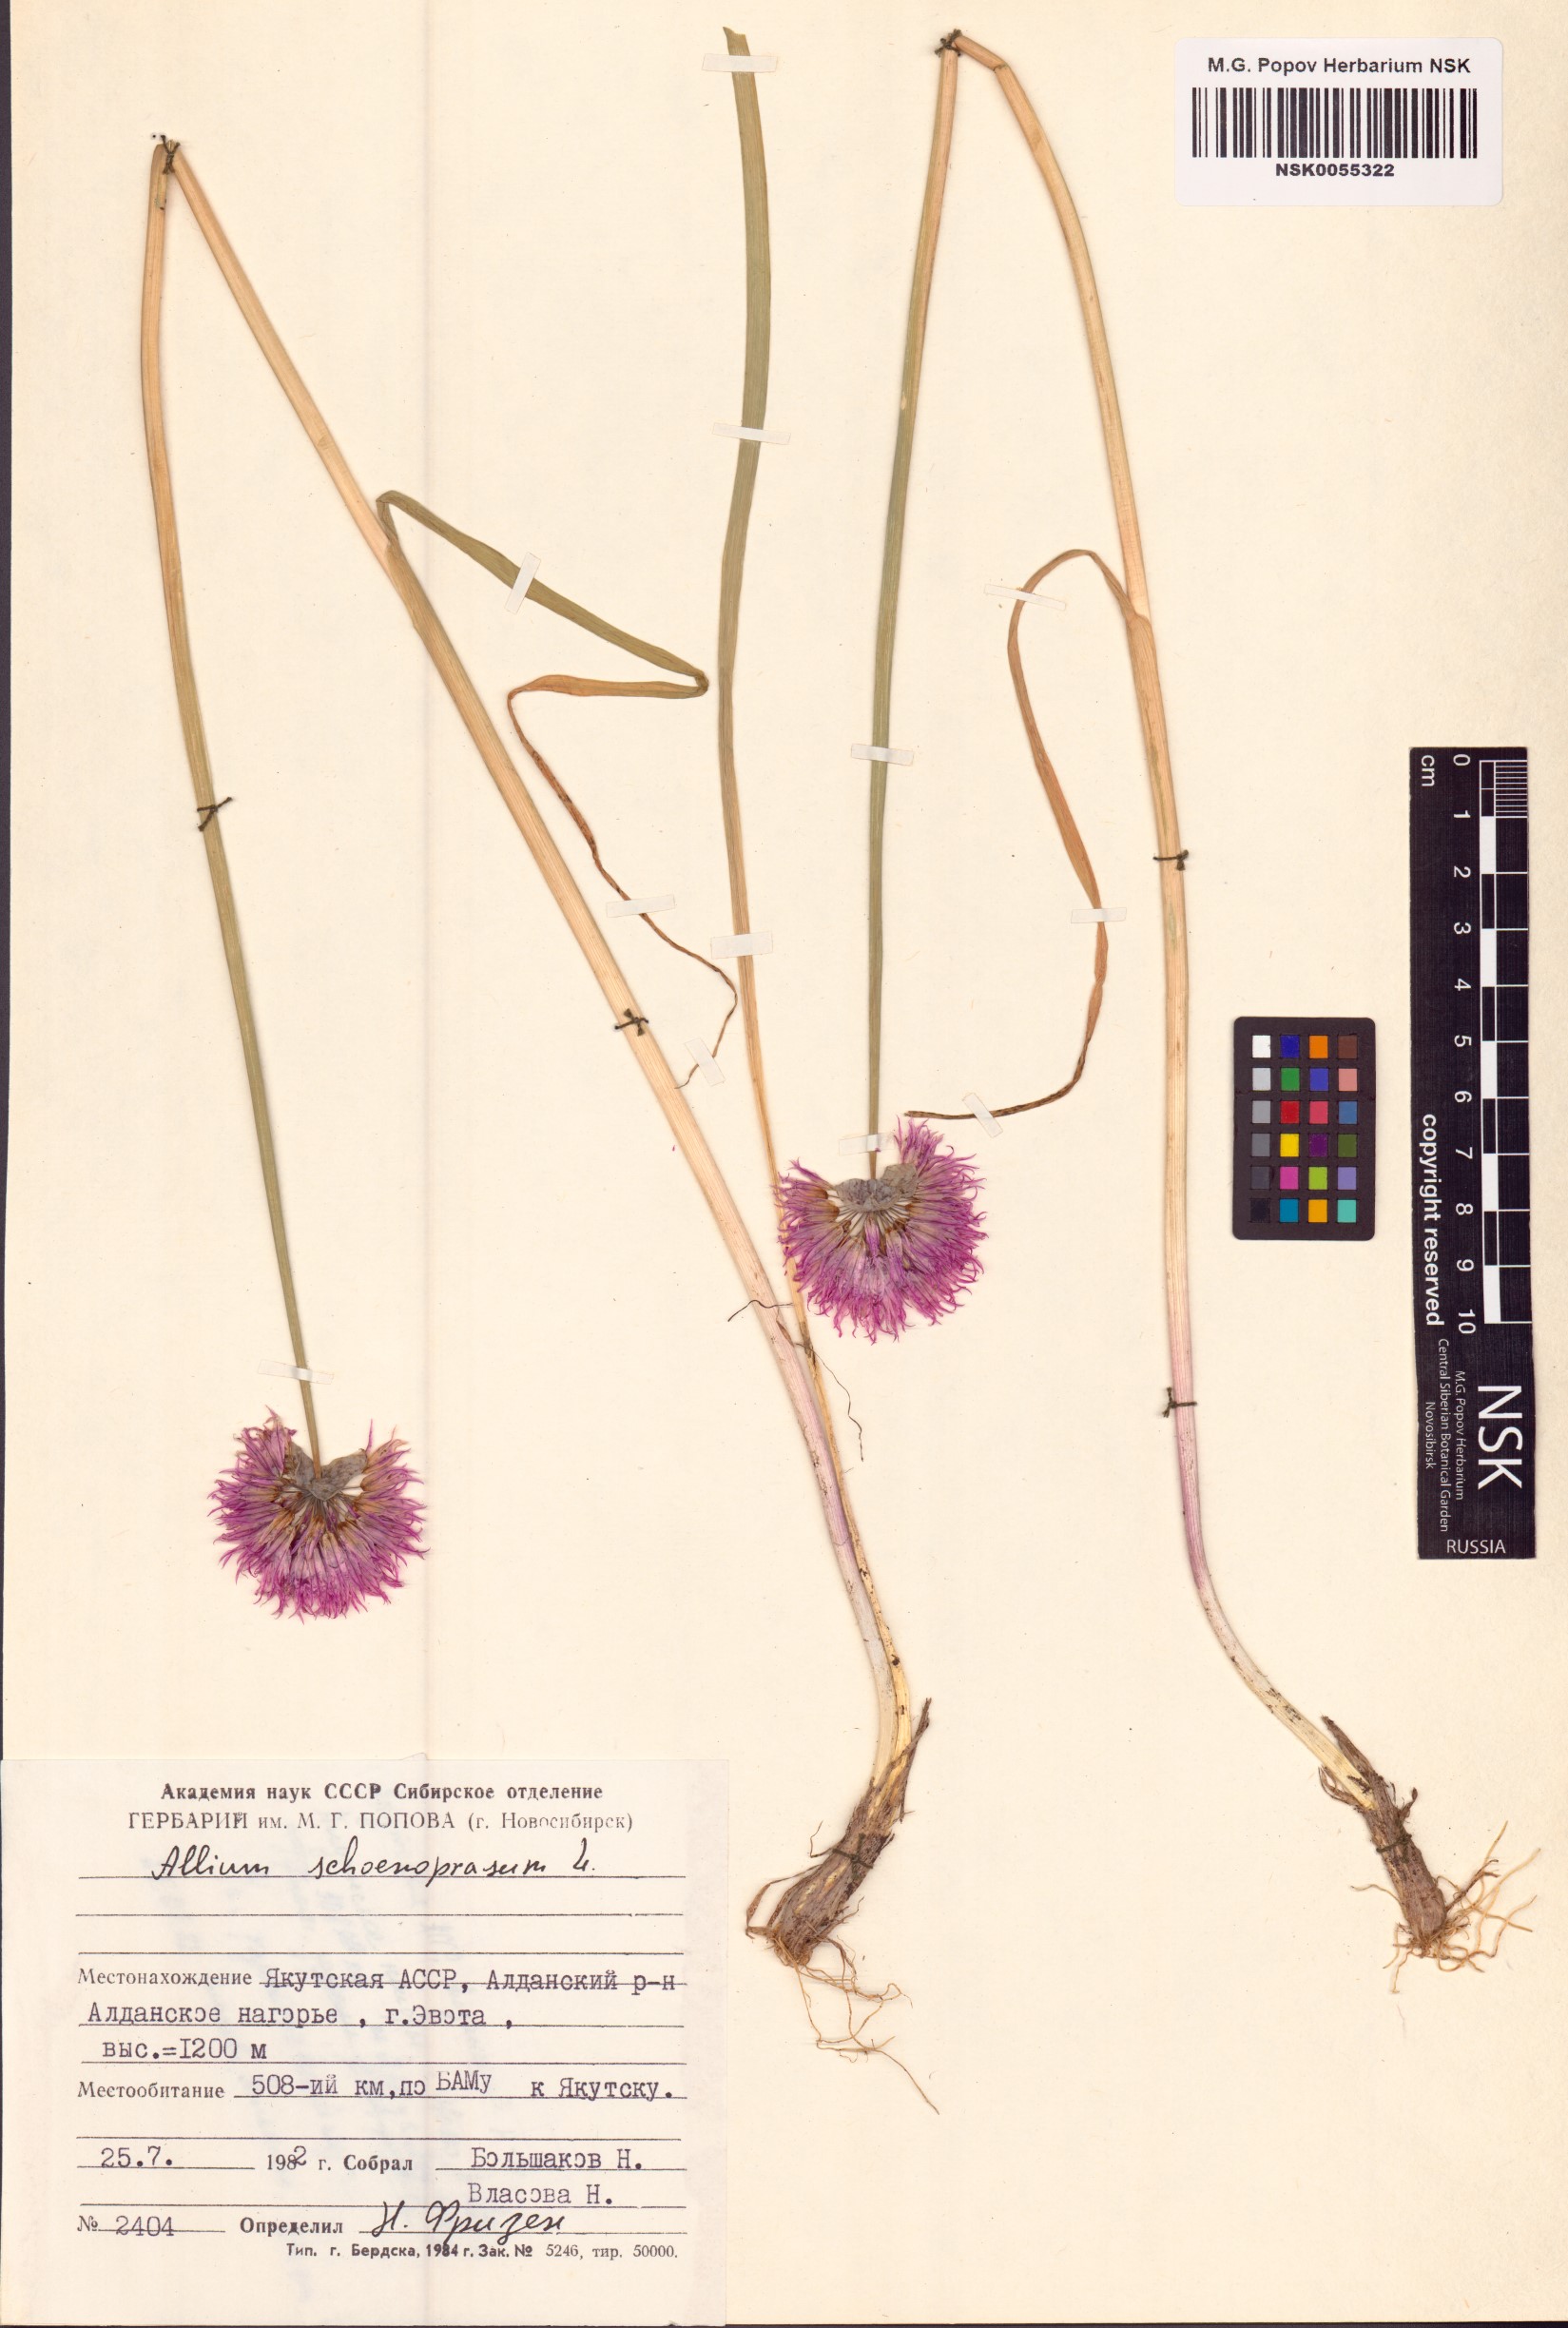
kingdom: Plantae
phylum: Tracheophyta
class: Liliopsida
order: Asparagales
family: Amaryllidaceae
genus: Allium
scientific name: Allium schoenoprasum
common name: Chives
